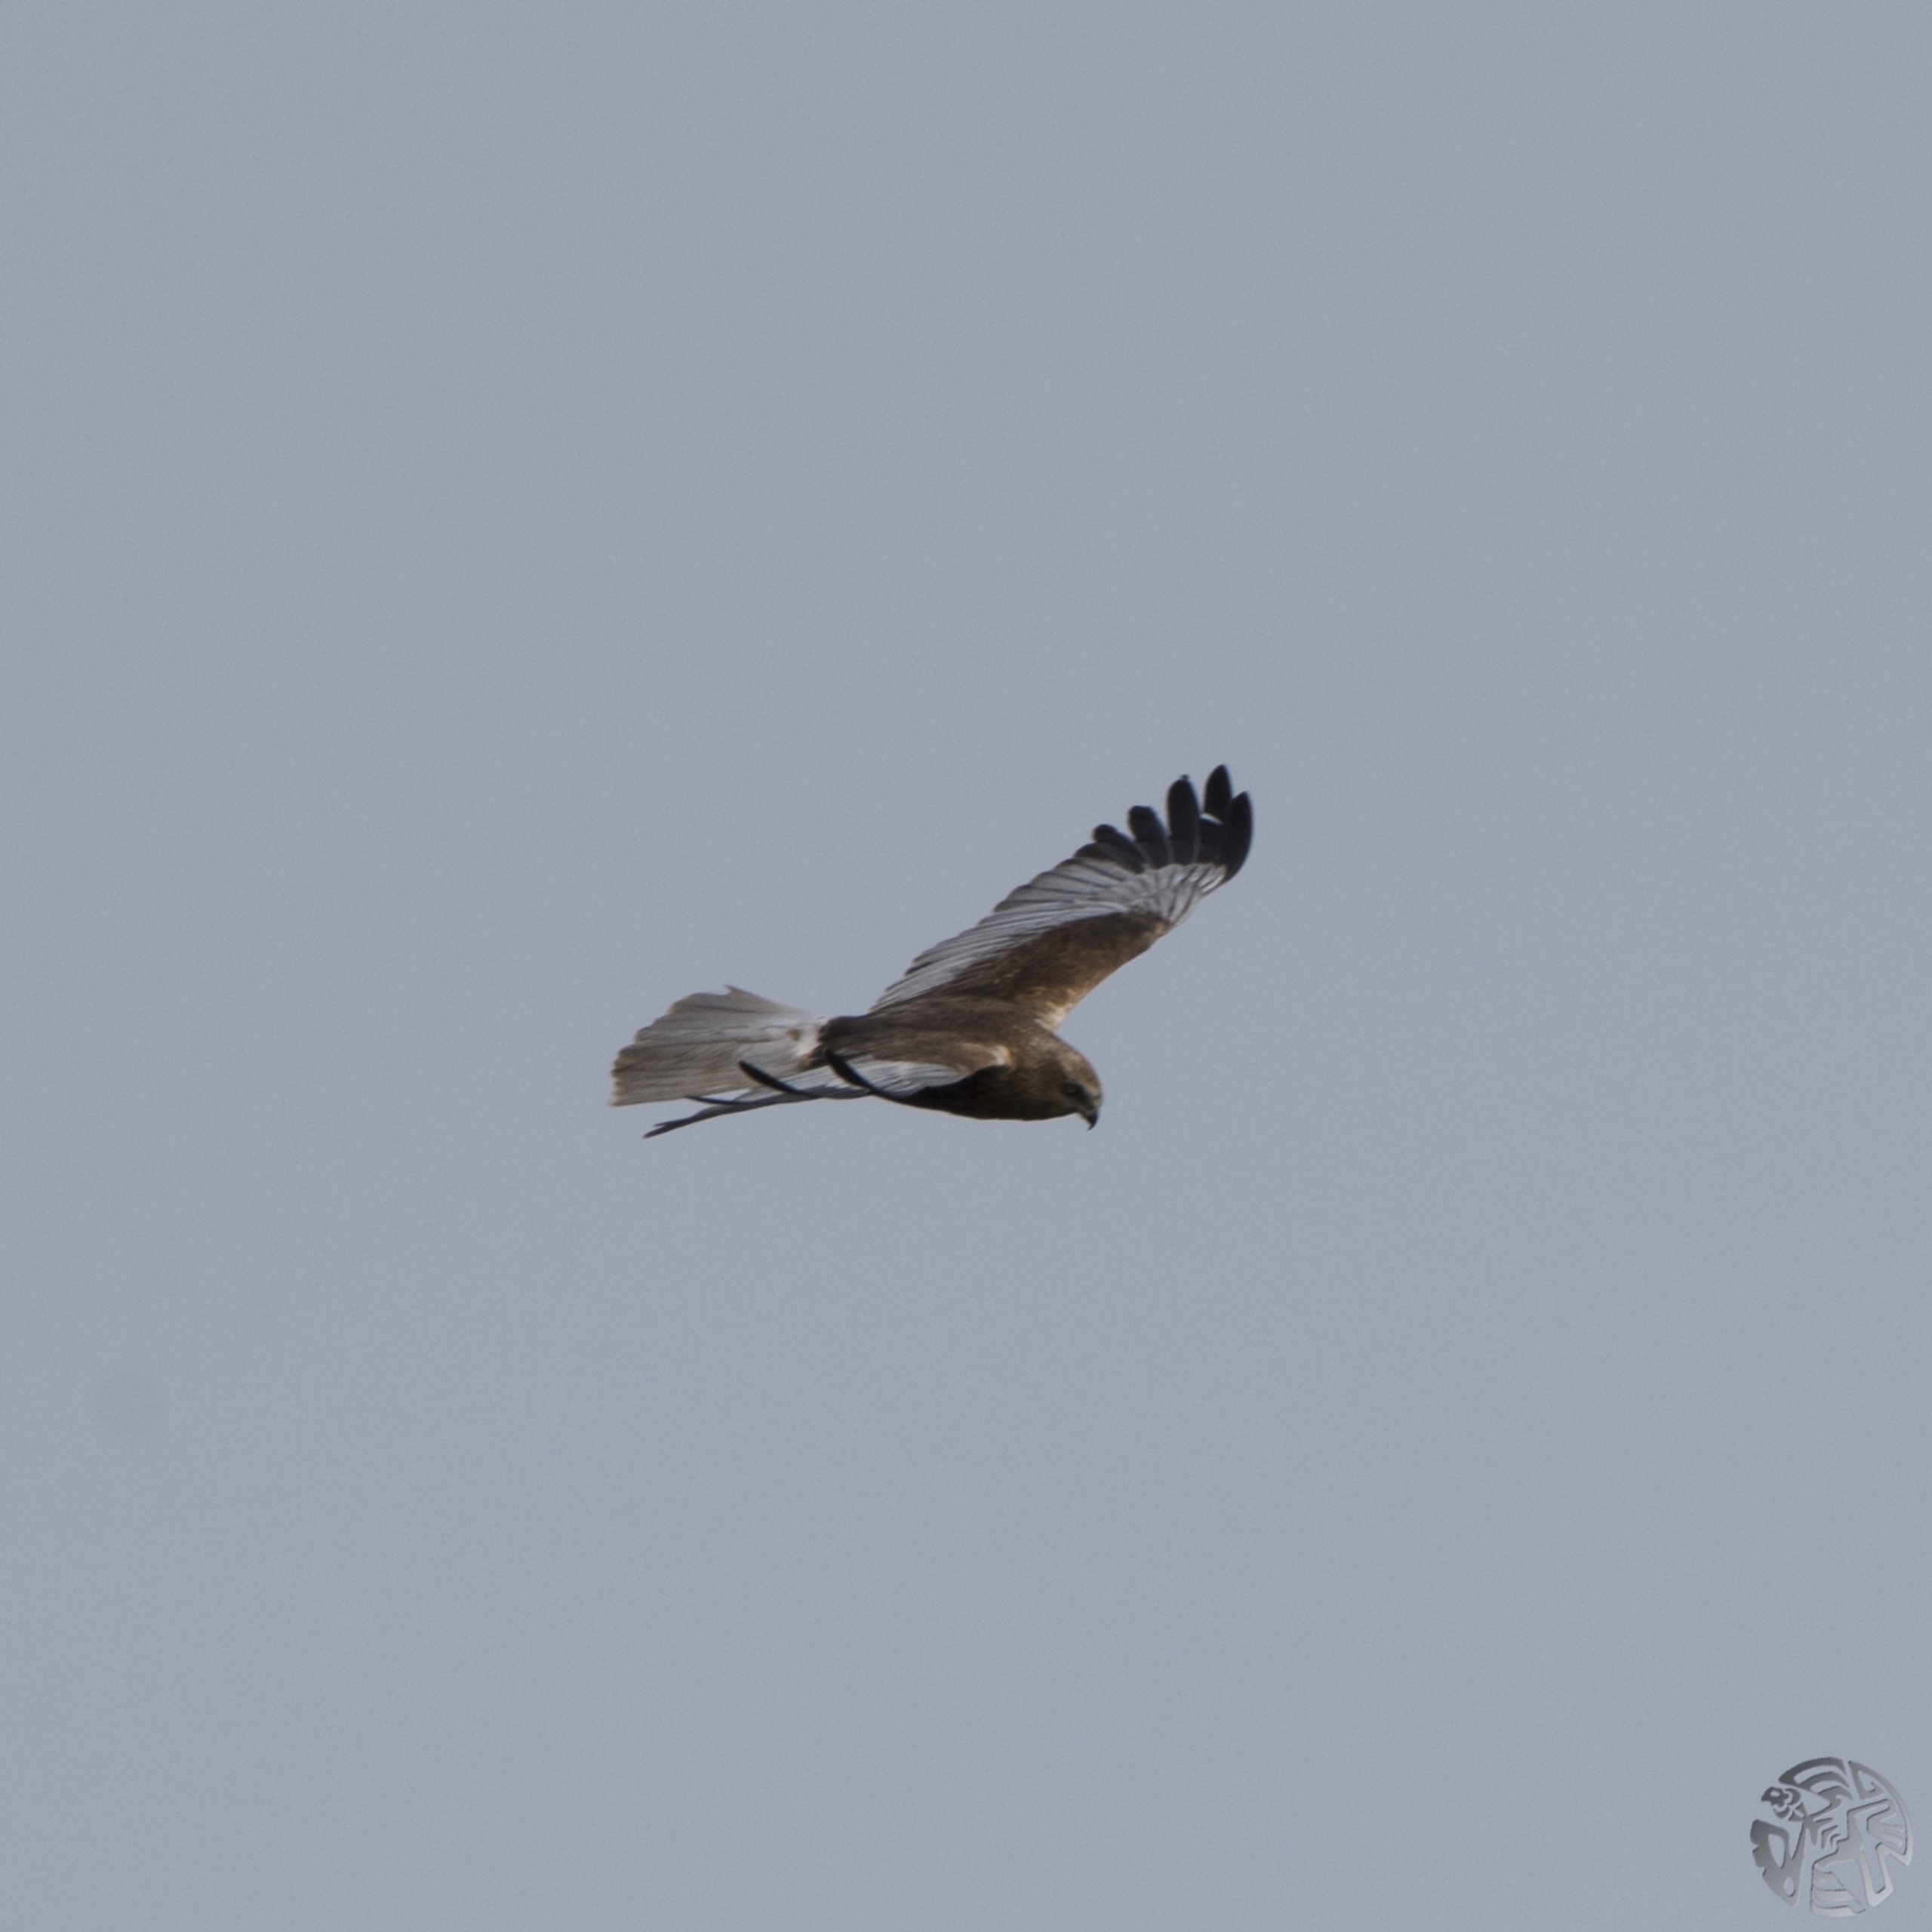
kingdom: Animalia
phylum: Chordata
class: Aves
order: Accipitriformes
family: Accipitridae
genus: Circus
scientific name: Circus aeruginosus
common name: Rørhøg
